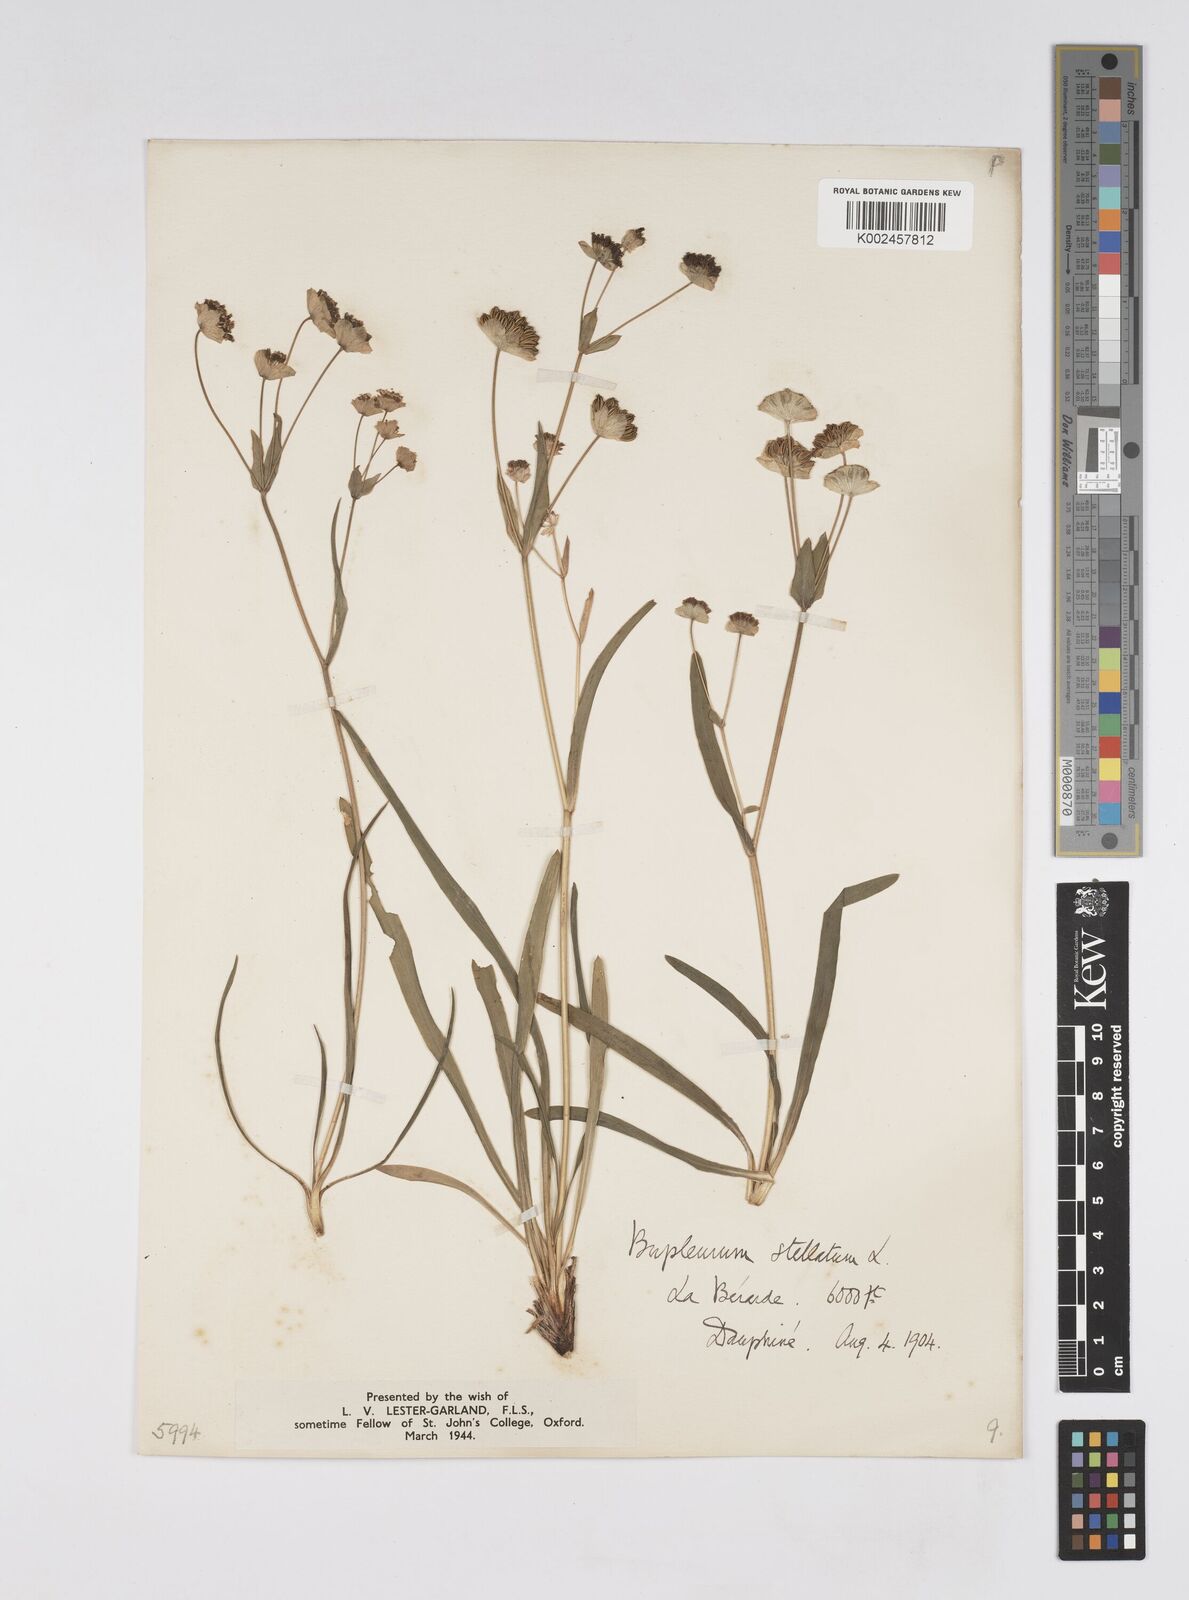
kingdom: Plantae
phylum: Tracheophyta
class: Magnoliopsida
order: Apiales
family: Apiaceae
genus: Bupleurum
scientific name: Bupleurum stellatum
